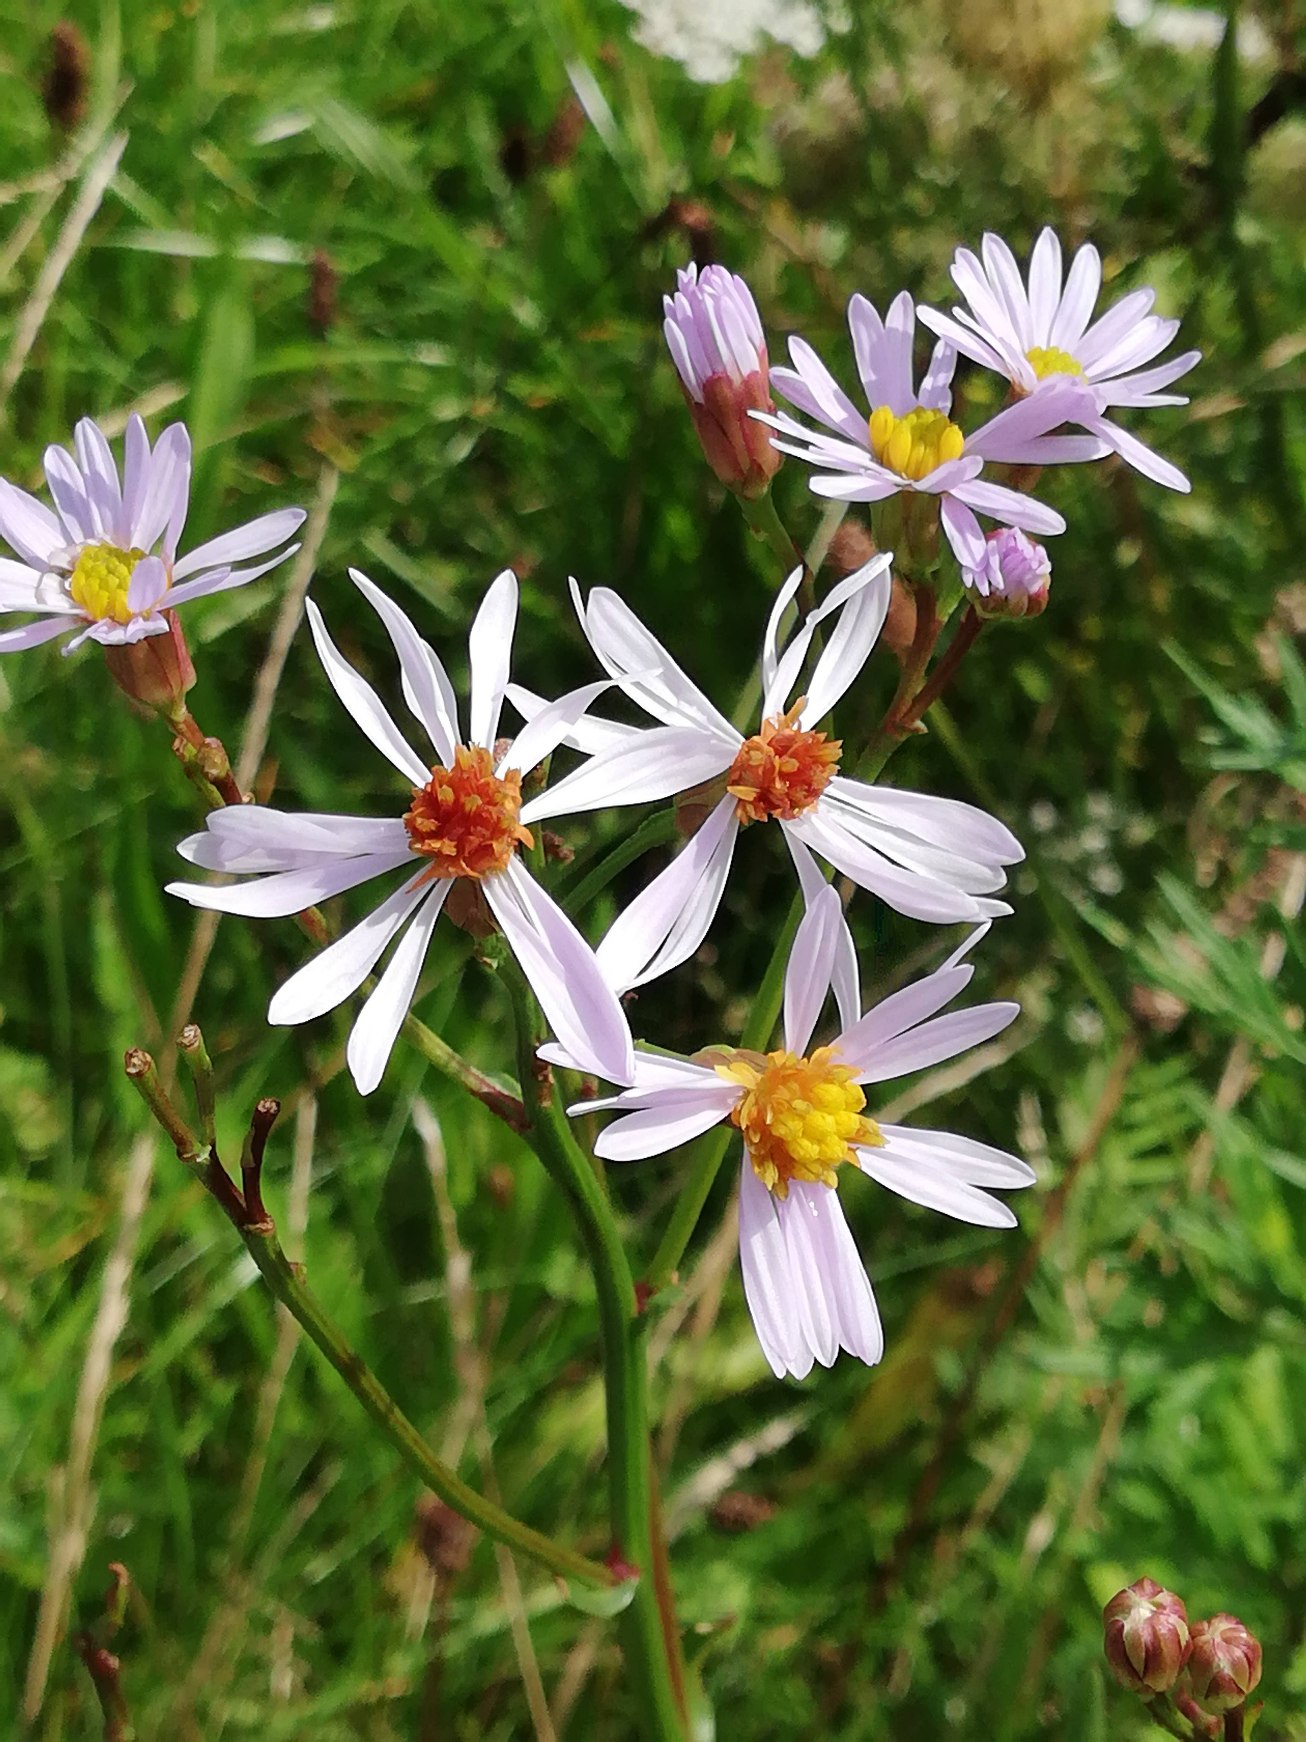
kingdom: Plantae
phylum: Tracheophyta
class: Magnoliopsida
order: Asterales
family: Asteraceae
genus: Tripolium
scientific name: Tripolium pannonicum
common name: Strandasters
